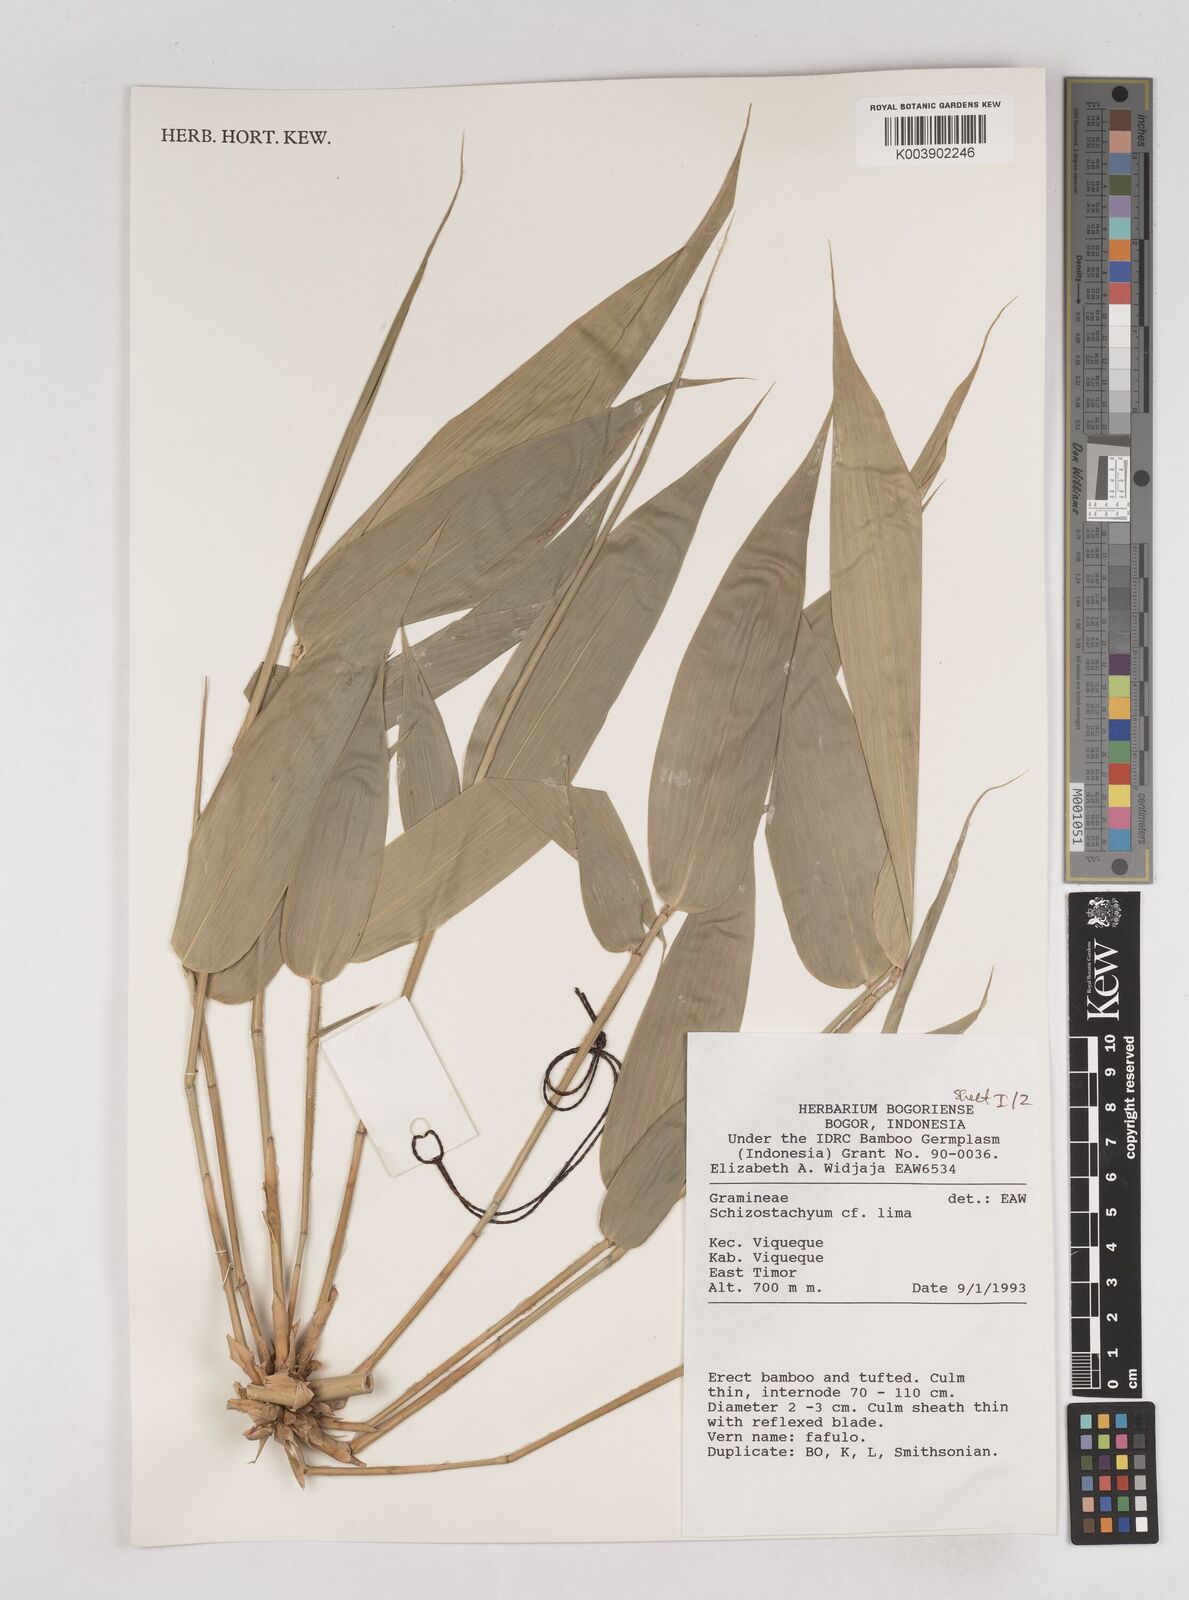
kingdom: Plantae
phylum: Tracheophyta
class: Liliopsida
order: Poales
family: Poaceae
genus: Schizostachyum
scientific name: Schizostachyum lima
